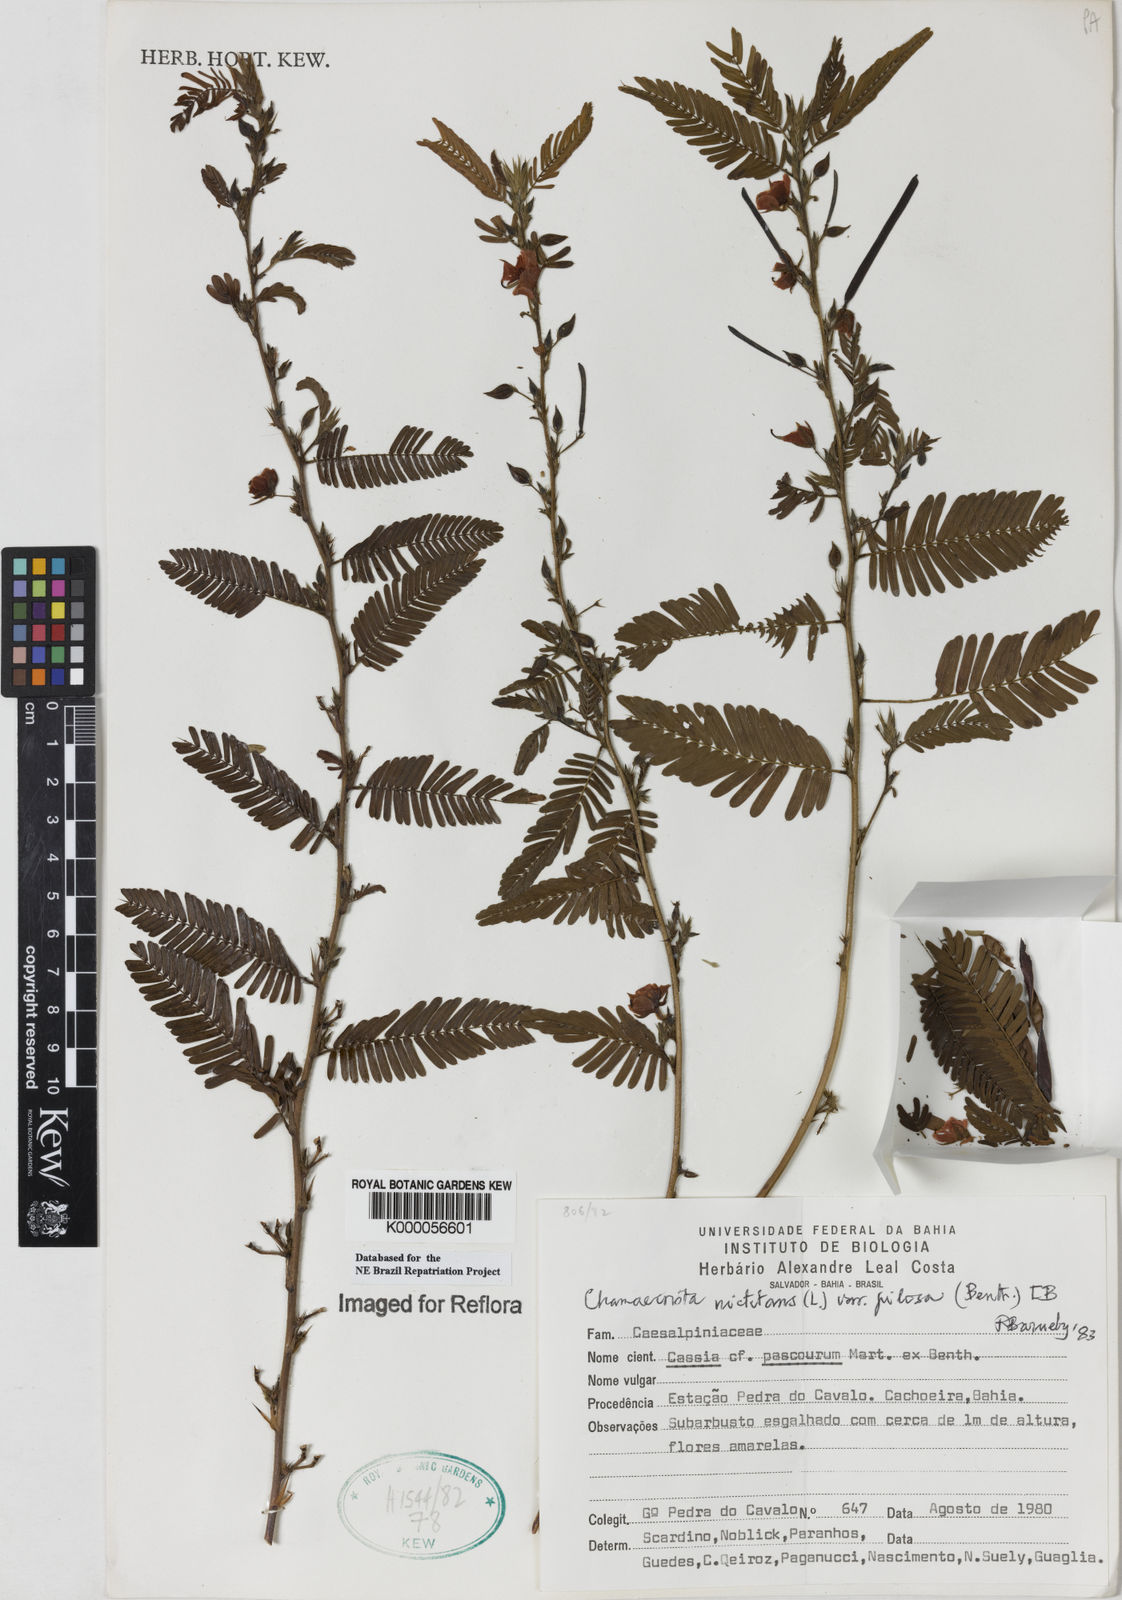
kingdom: Plantae
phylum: Tracheophyta
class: Magnoliopsida
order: Fabales
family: Fabaceae
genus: Chamaecrista
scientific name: Chamaecrista nictitans
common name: Sensitive cassia
